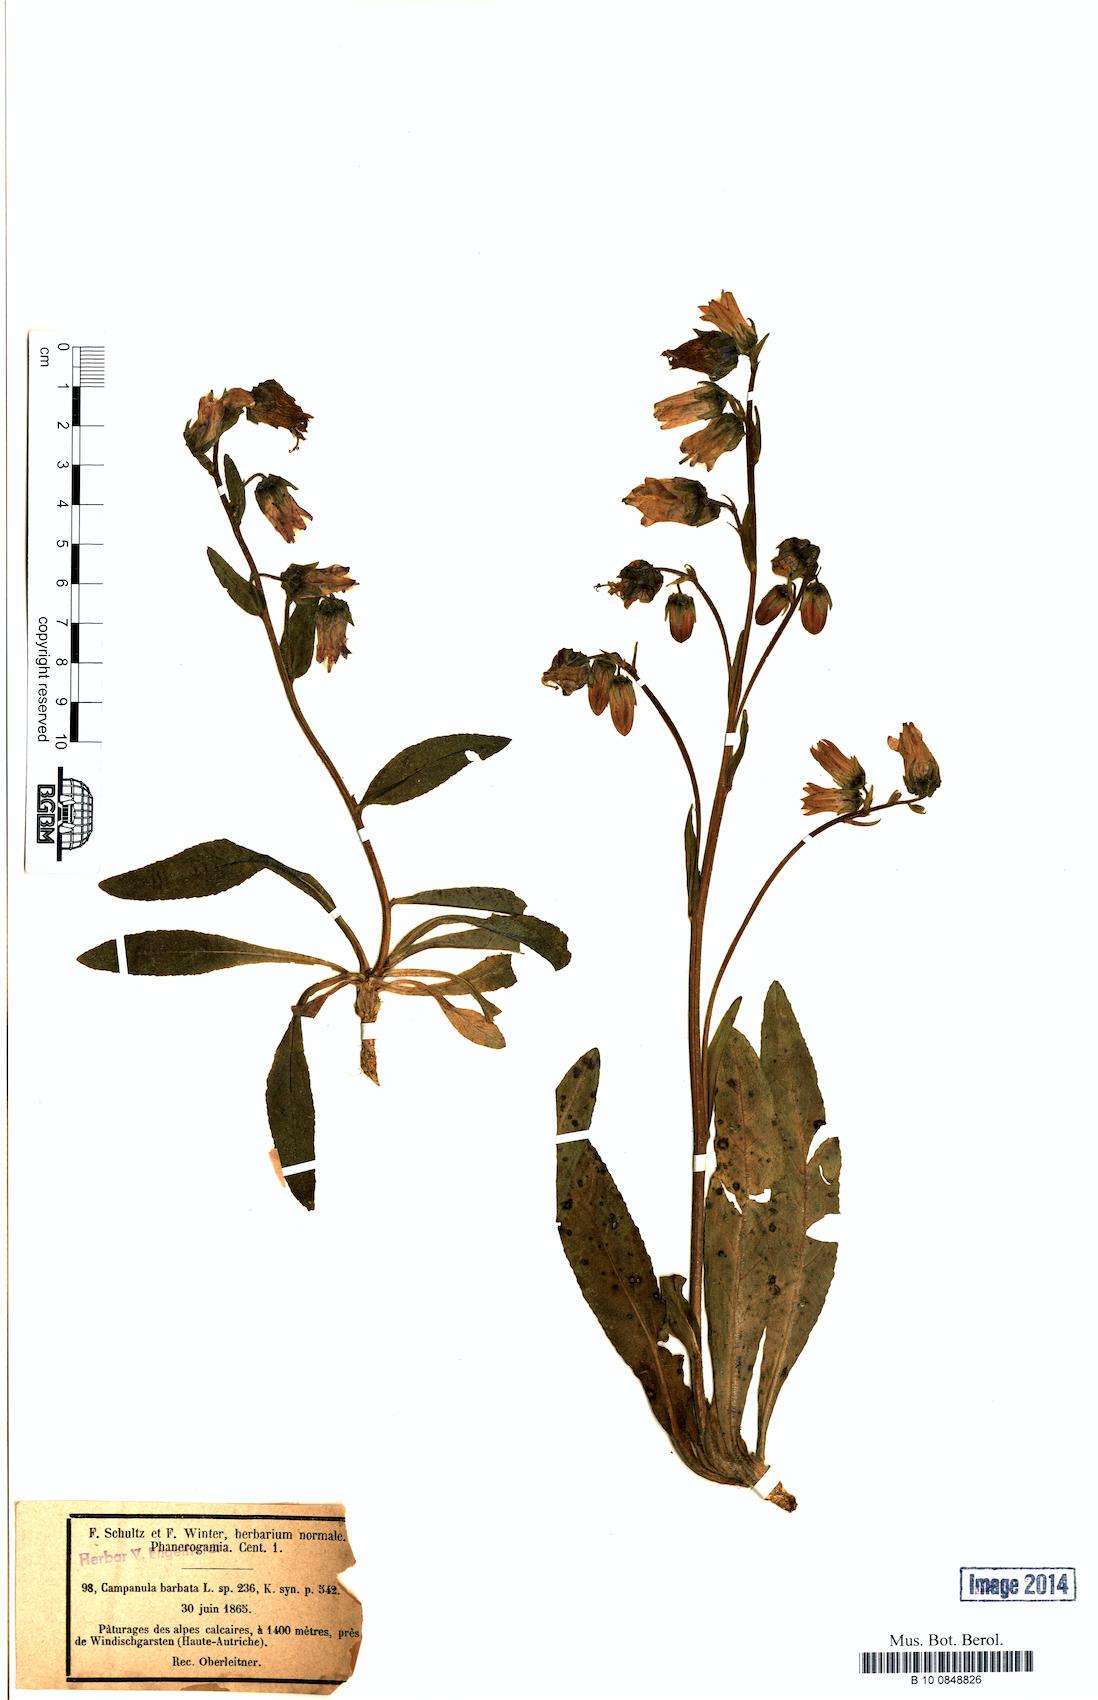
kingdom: Plantae
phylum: Tracheophyta
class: Magnoliopsida
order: Asterales
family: Campanulaceae
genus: Campanula
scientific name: Campanula barbata
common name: Bearded bellflower
